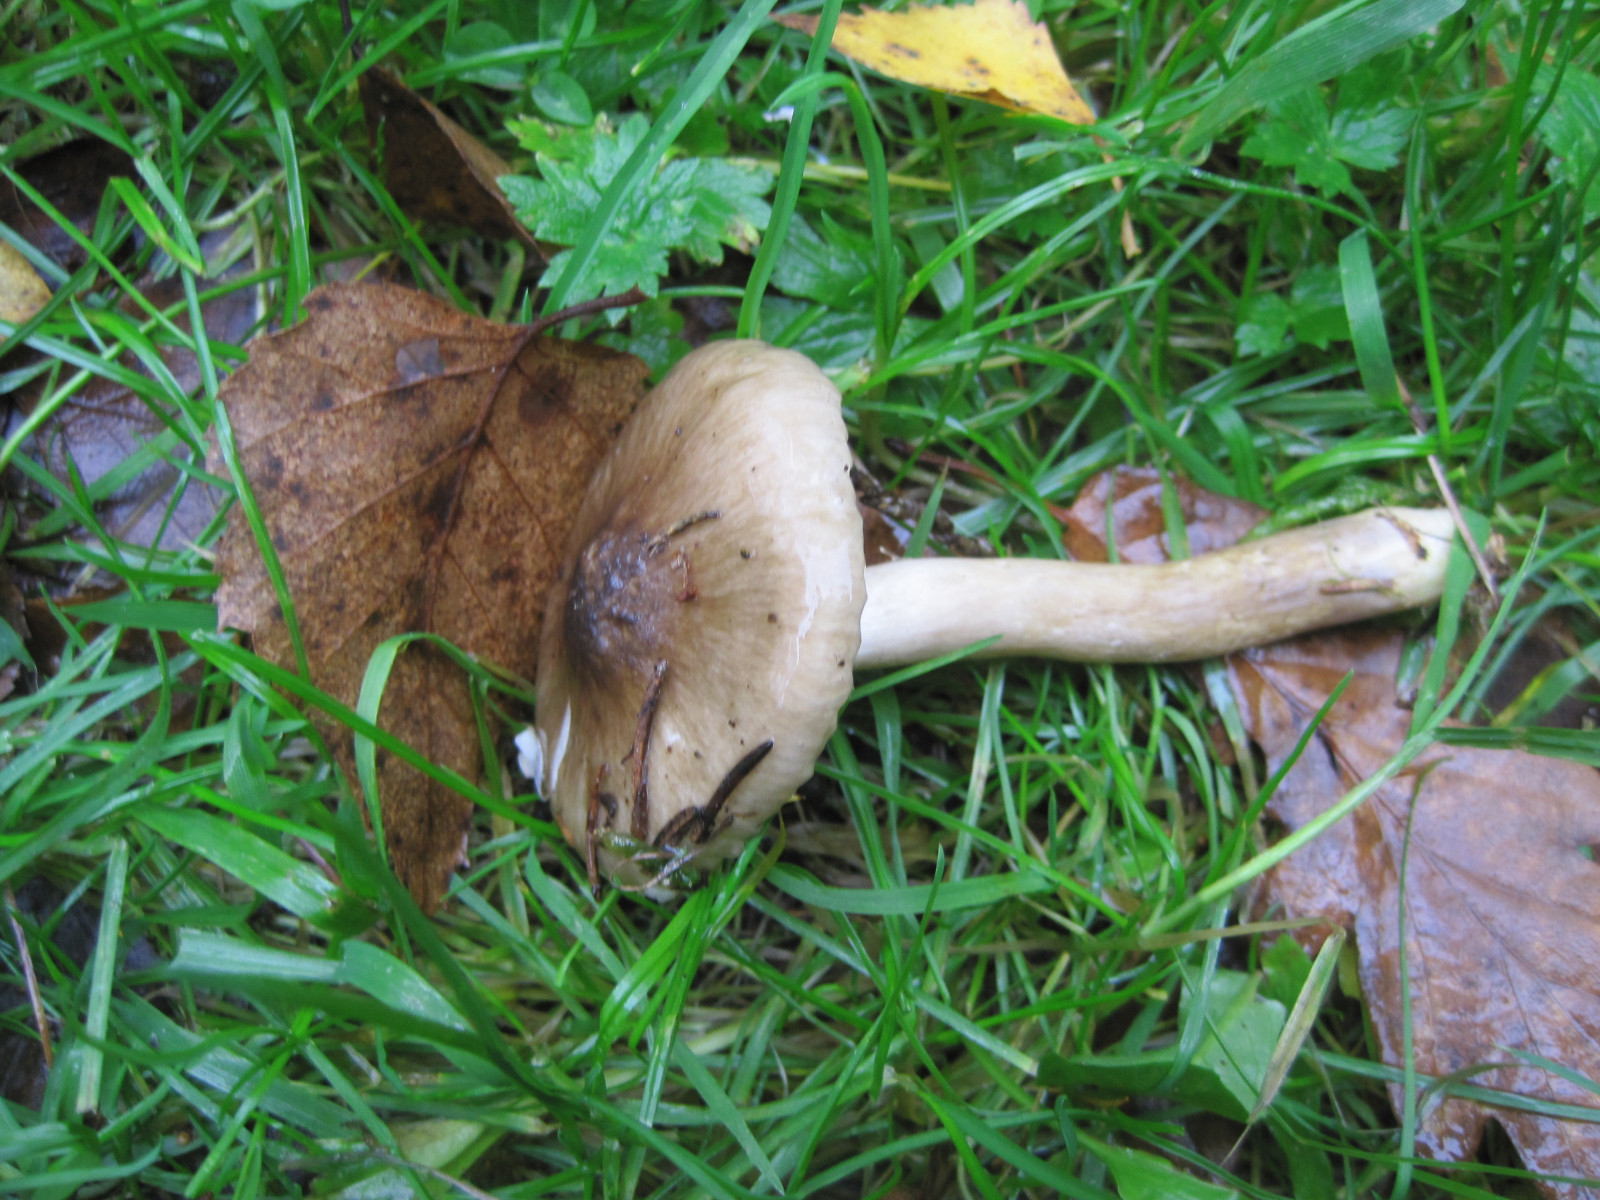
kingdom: Fungi
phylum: Basidiomycota
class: Agaricomycetes
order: Agaricales
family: Hygrophoraceae
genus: Hygrophorus
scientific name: Hygrophorus olivaceoalbus
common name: hvidbrun sneglehat
